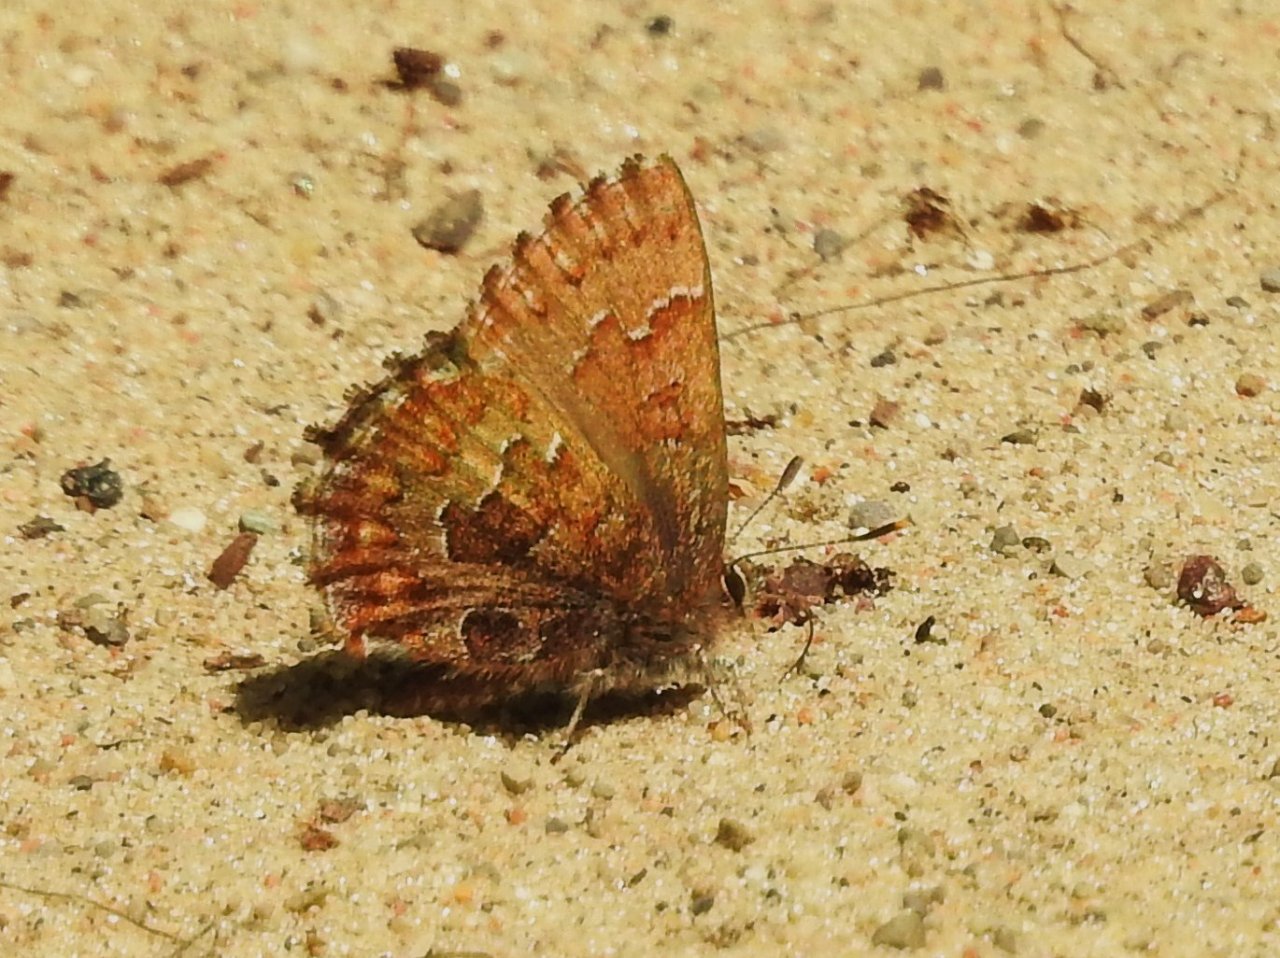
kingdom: Animalia
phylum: Arthropoda
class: Insecta
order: Lepidoptera
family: Lycaenidae
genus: Incisalia
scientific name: Incisalia niphon
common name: Eastern Pine Elfin
